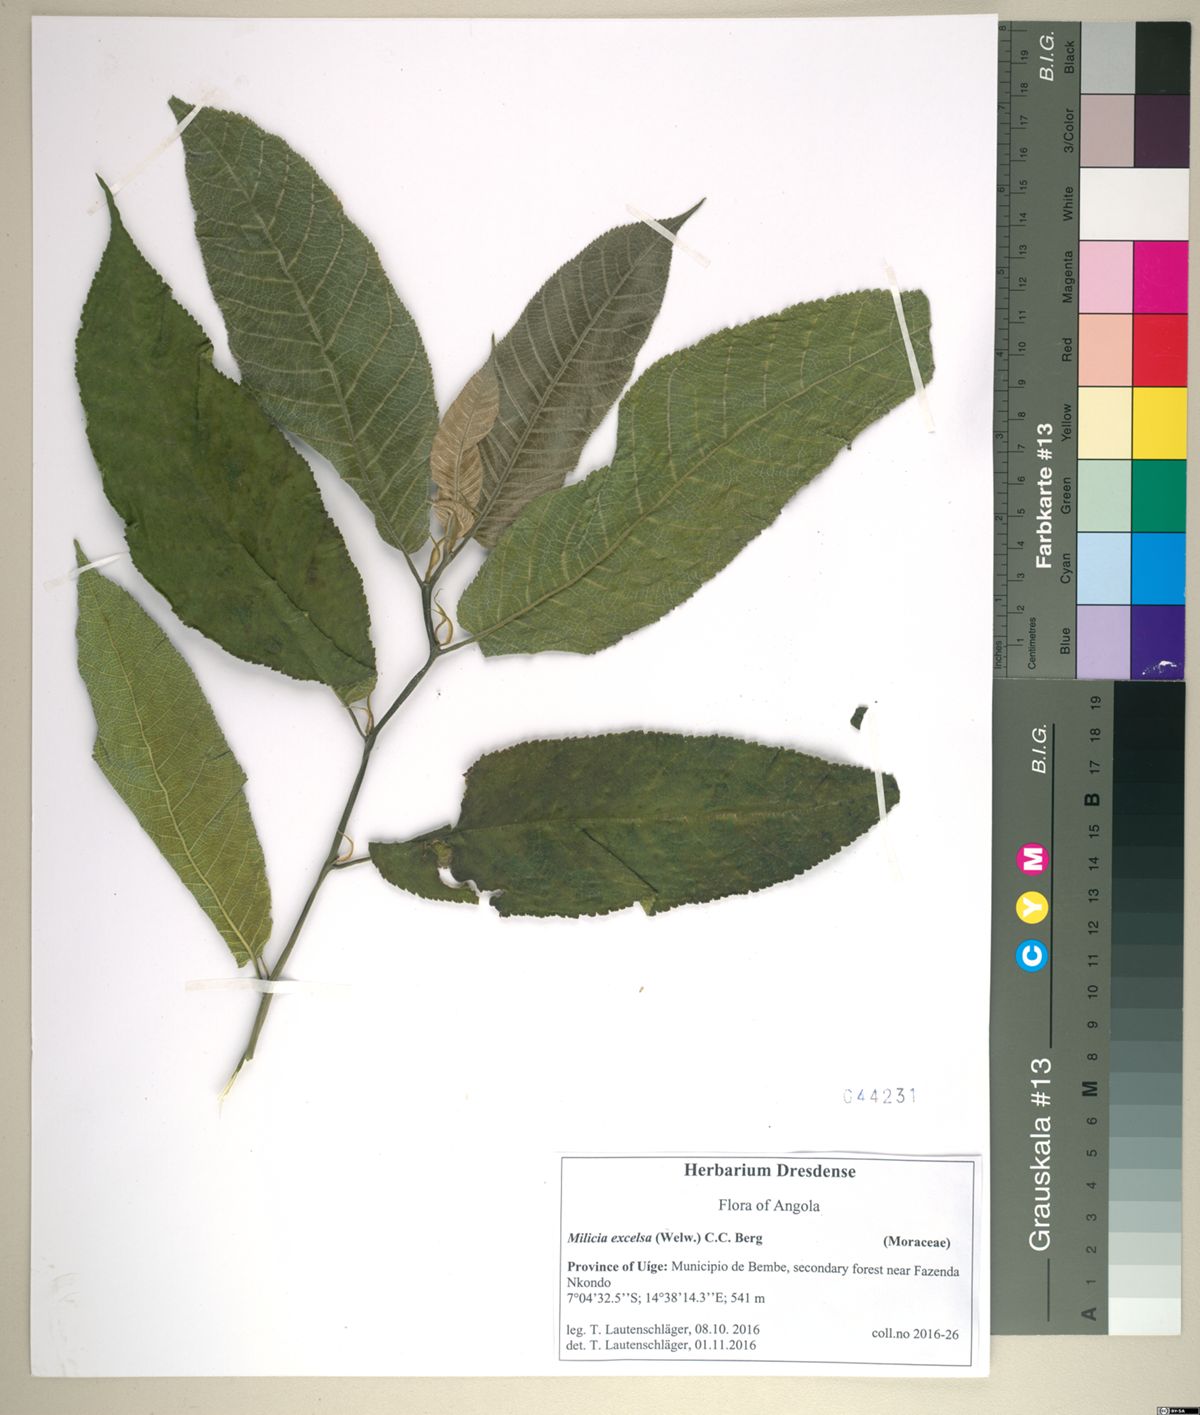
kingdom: Plantae
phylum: Tracheophyta
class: Magnoliopsida
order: Rosales
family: Moraceae
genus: Milicia
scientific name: Milicia excelsa
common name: African teak
